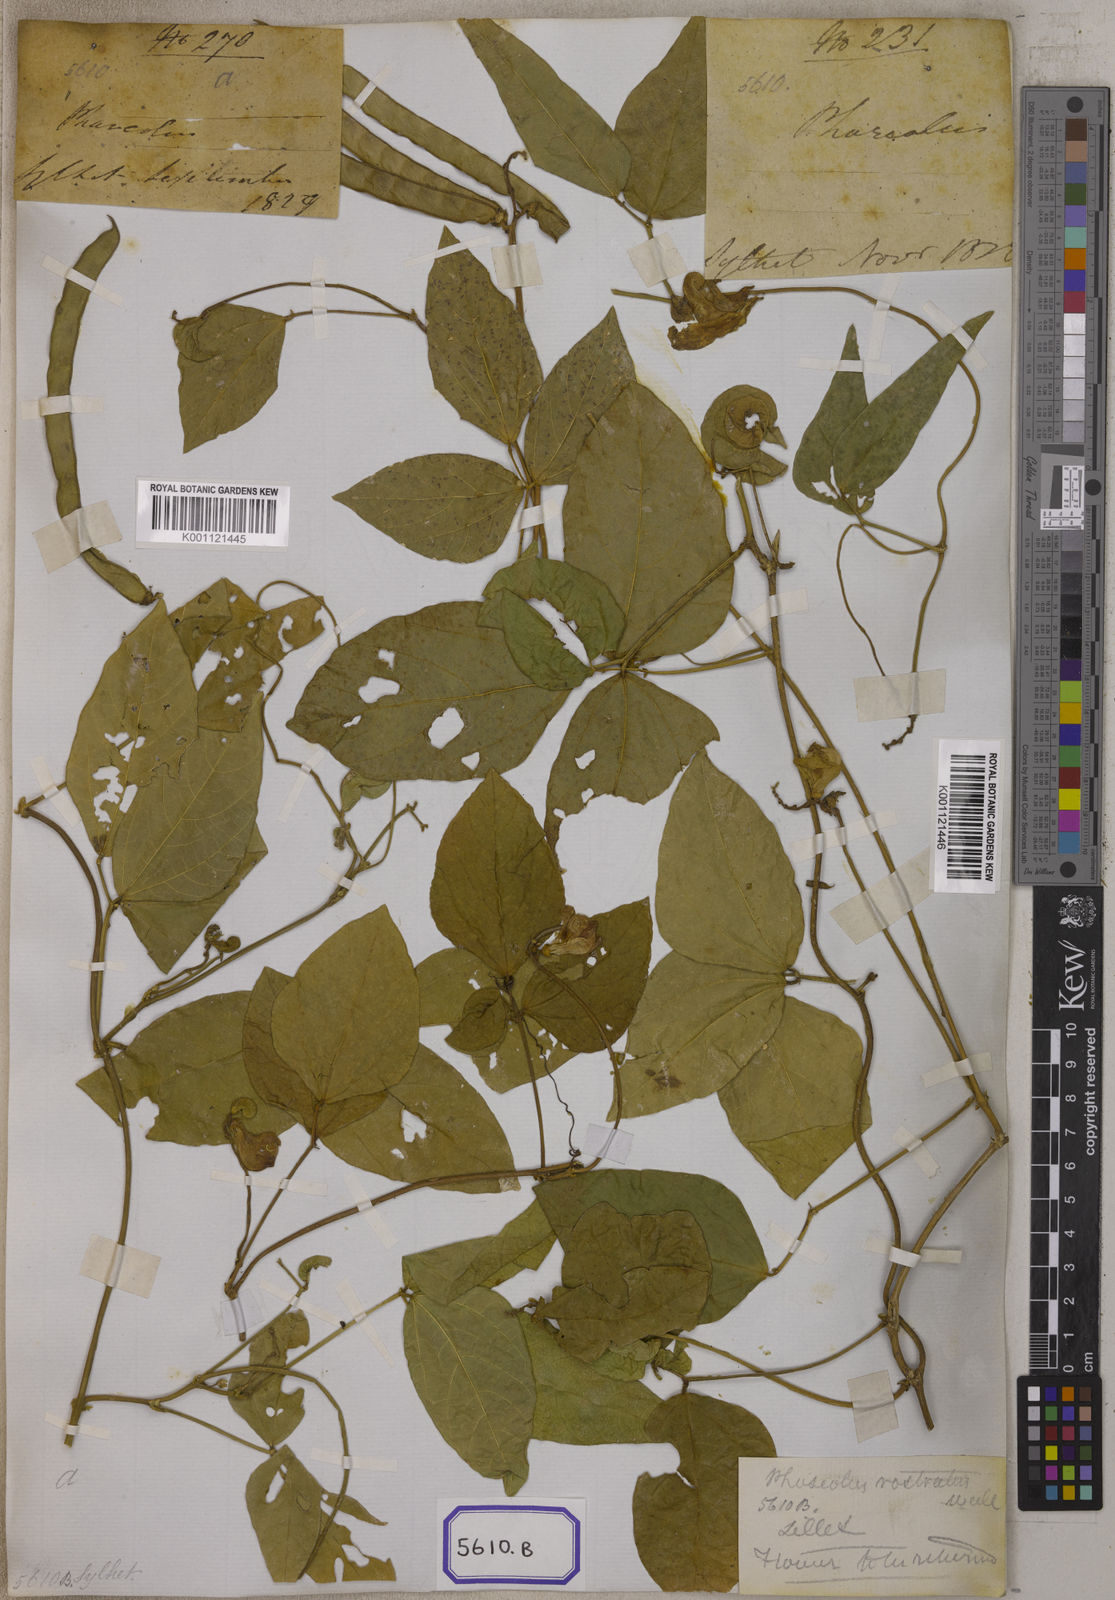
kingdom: Plantae
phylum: Tracheophyta
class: Magnoliopsida
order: Fabales
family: Fabaceae
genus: Leptospron
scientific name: Leptospron adenanthum
